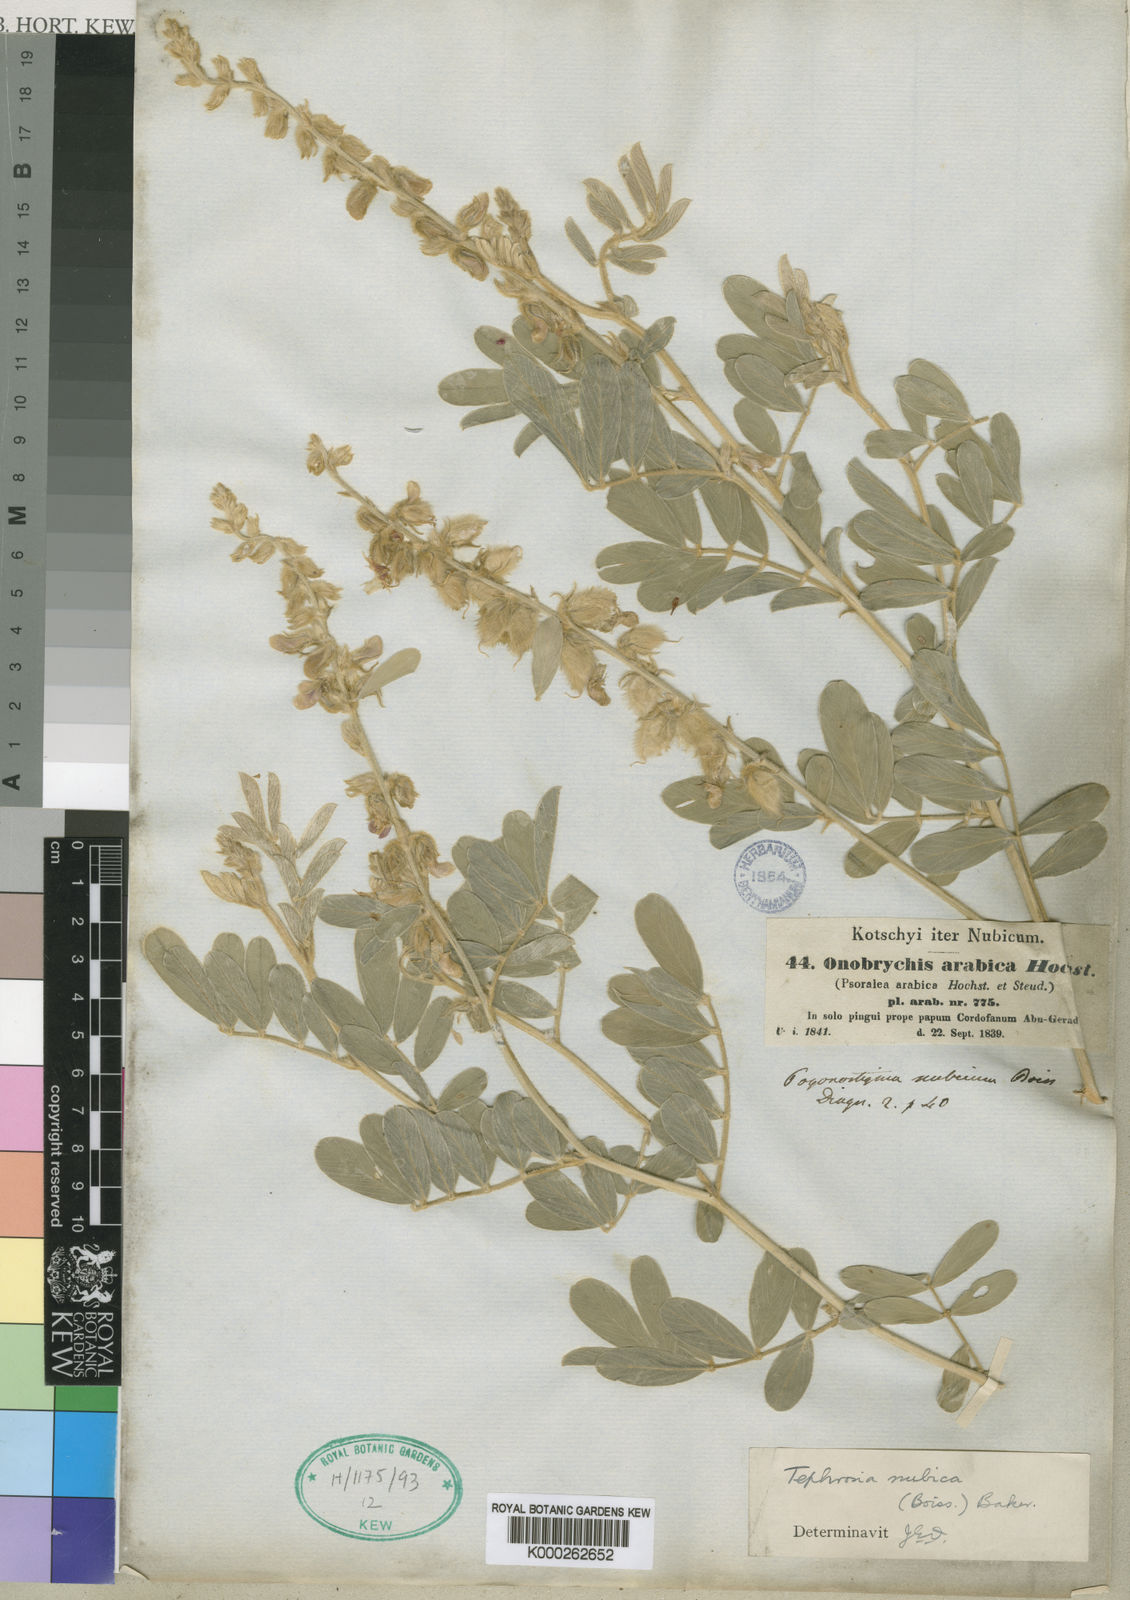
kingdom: Plantae
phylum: Tracheophyta
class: Magnoliopsida
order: Fabales
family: Fabaceae
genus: Tephrosia
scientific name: Tephrosia nubica
